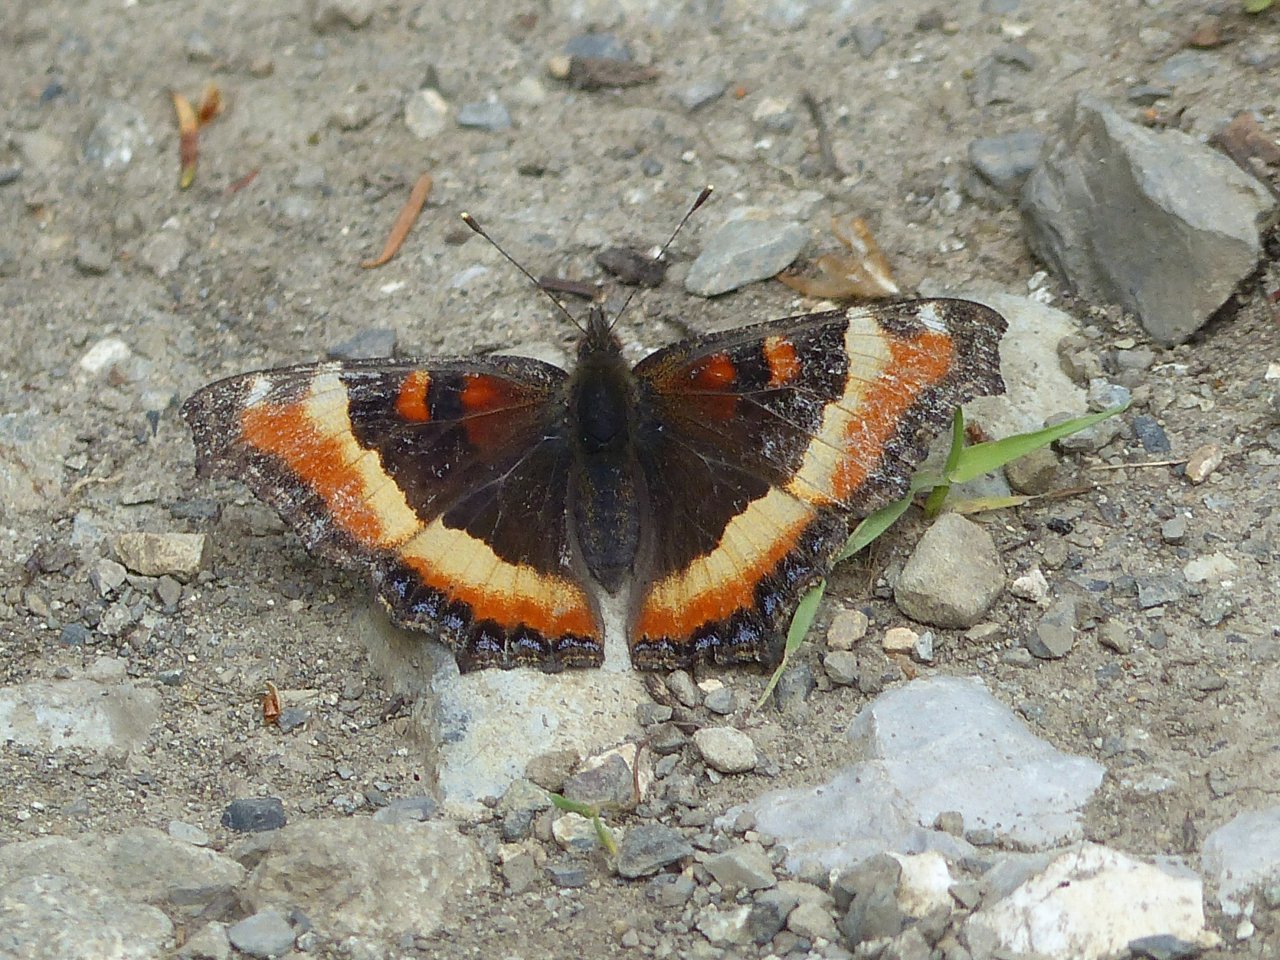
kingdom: Animalia
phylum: Arthropoda
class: Insecta
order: Lepidoptera
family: Nymphalidae
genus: Aglais
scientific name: Aglais milberti
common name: Milbert's Tortoiseshell
